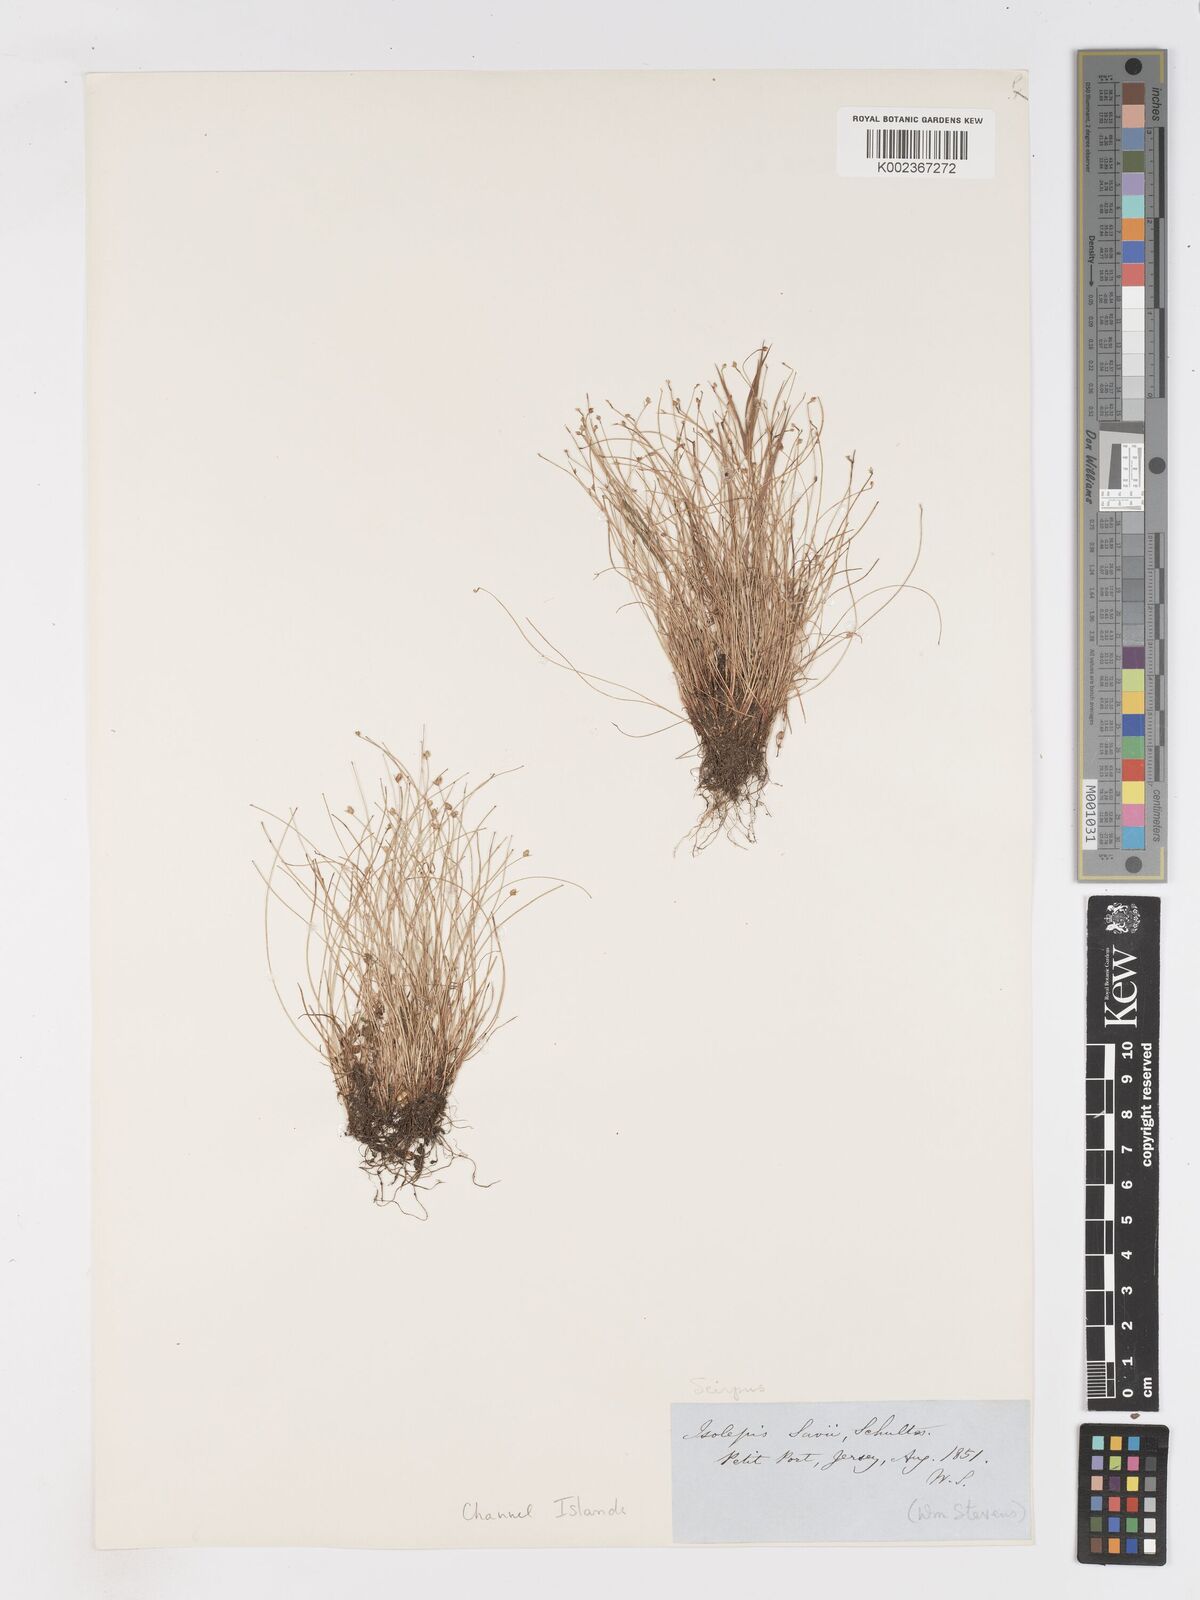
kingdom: Plantae
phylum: Tracheophyta
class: Liliopsida
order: Poales
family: Cyperaceae
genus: Isolepis
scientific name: Isolepis cernua
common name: Slender club-rush
